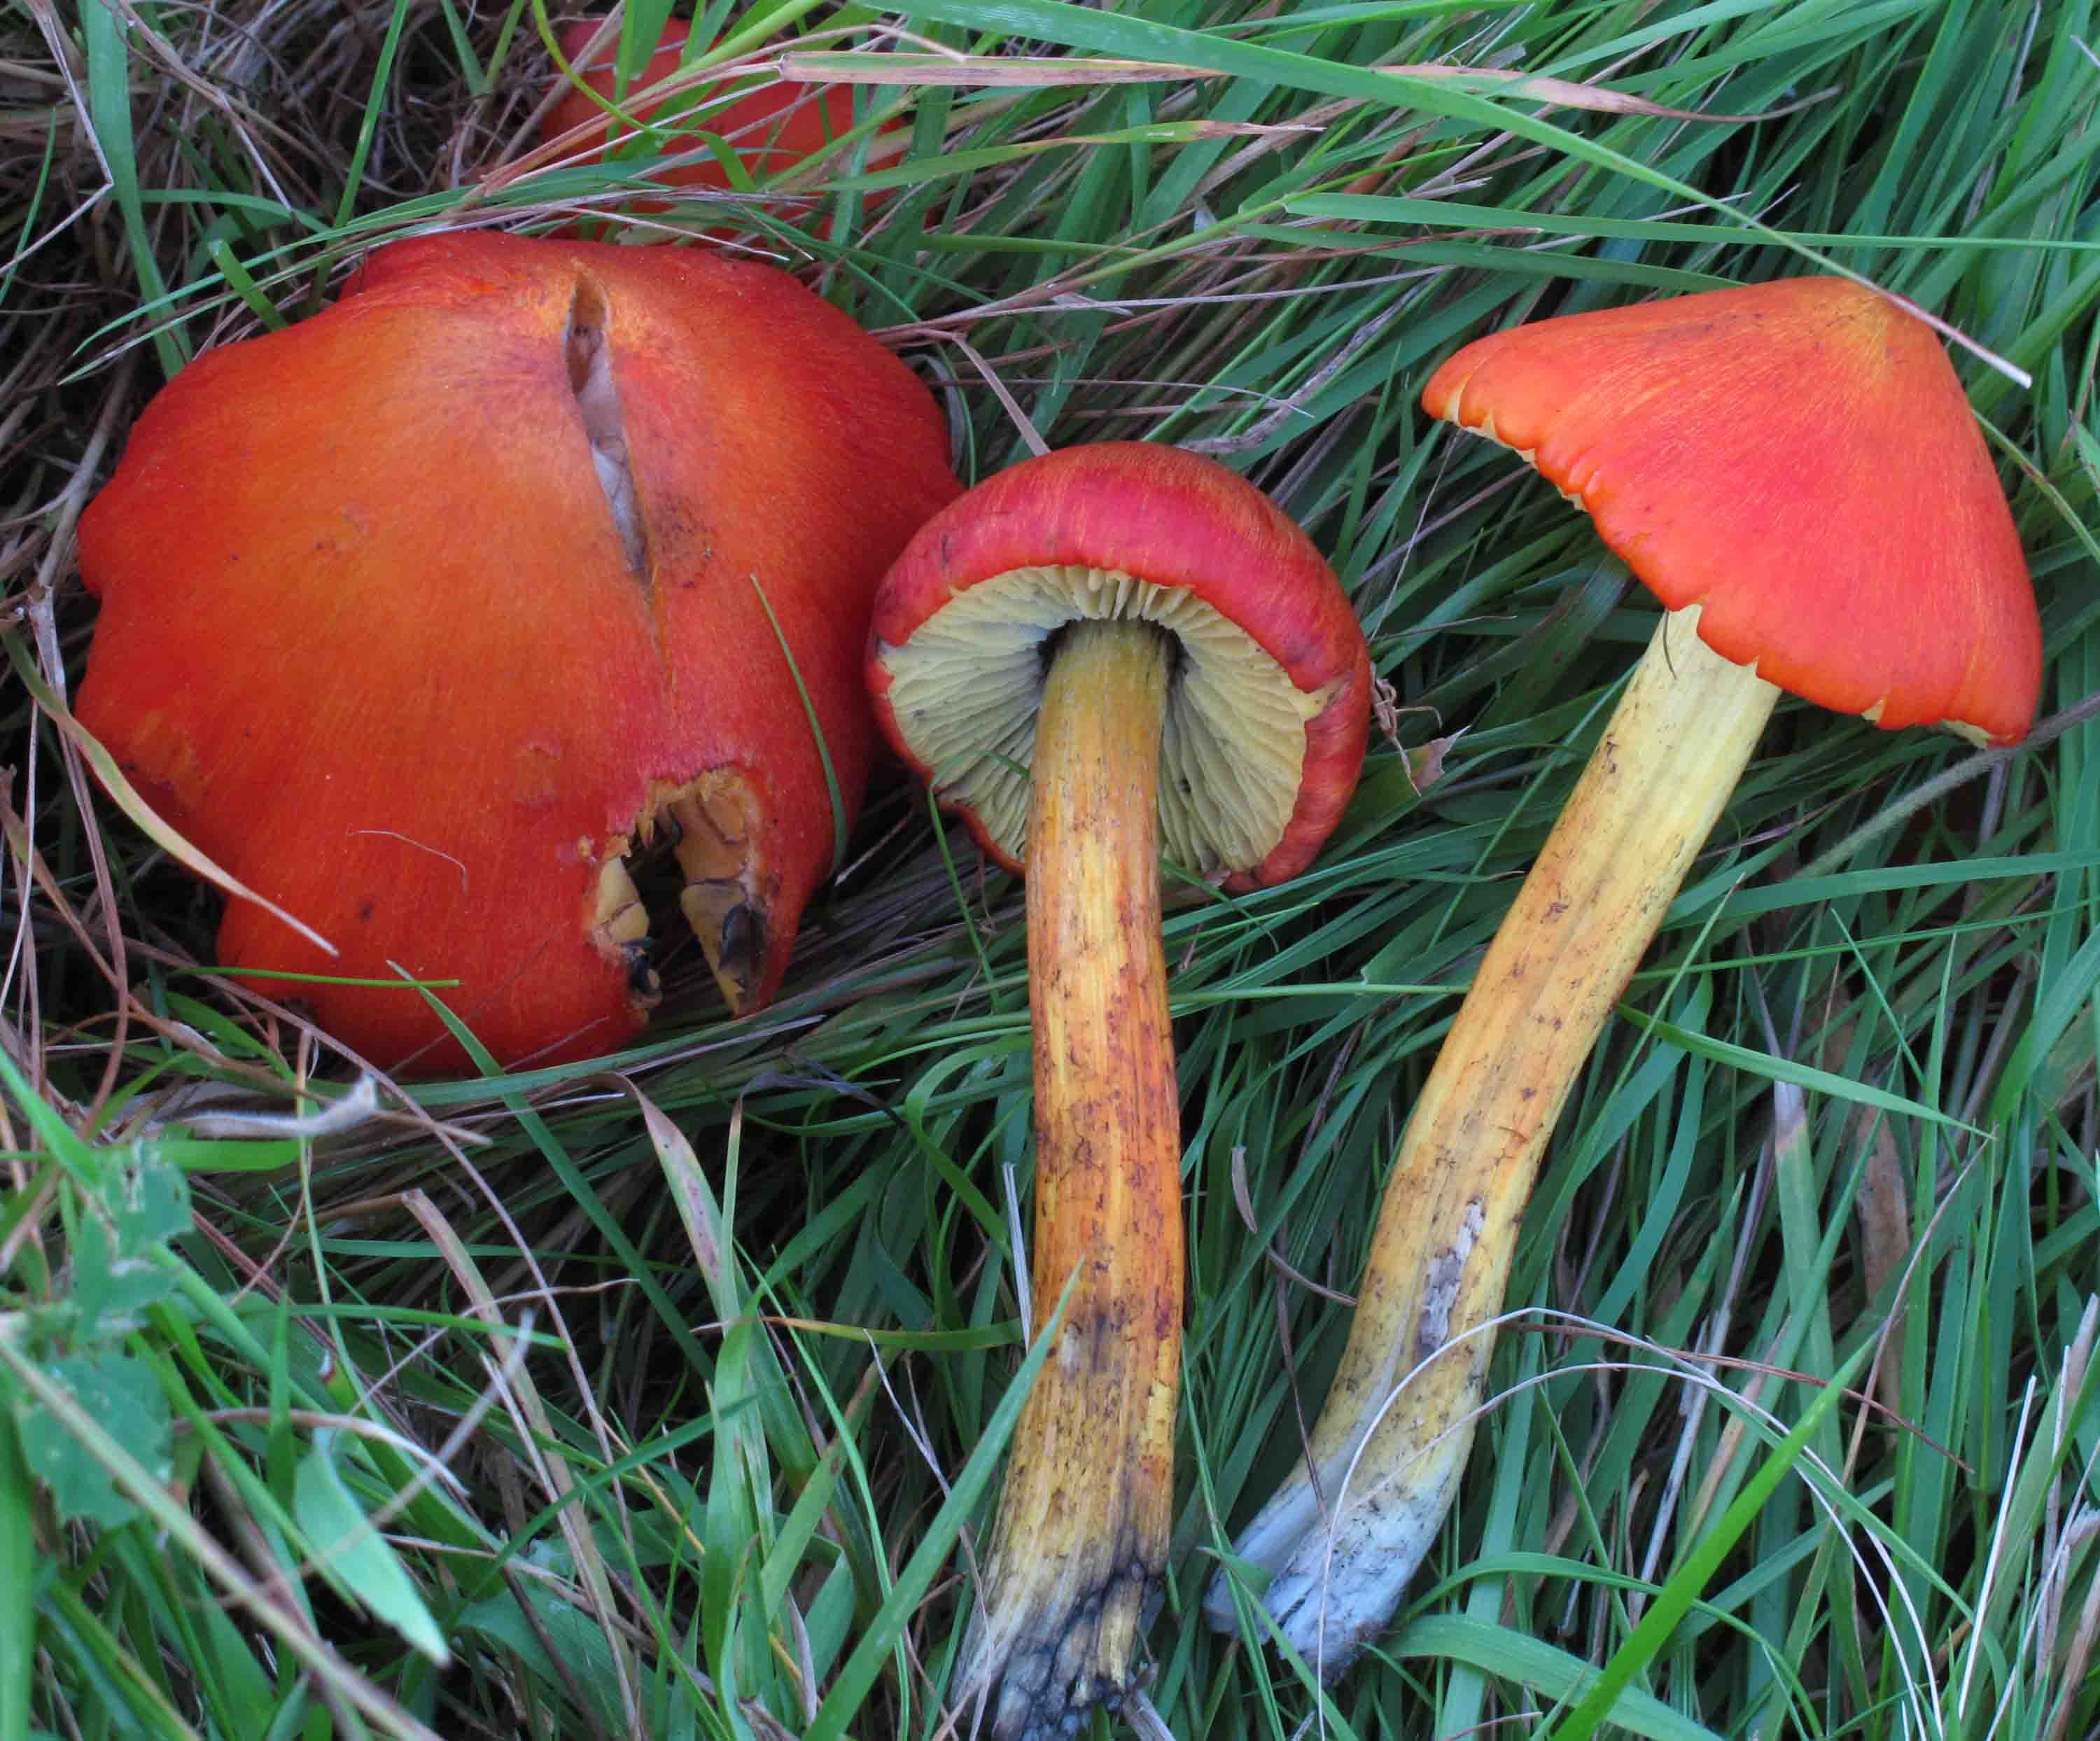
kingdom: Fungi
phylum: Basidiomycota
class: Agaricomycetes
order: Agaricales
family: Hygrophoraceae
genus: Hygrocybe
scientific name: Hygrocybe conica
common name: kegle-vokshat
